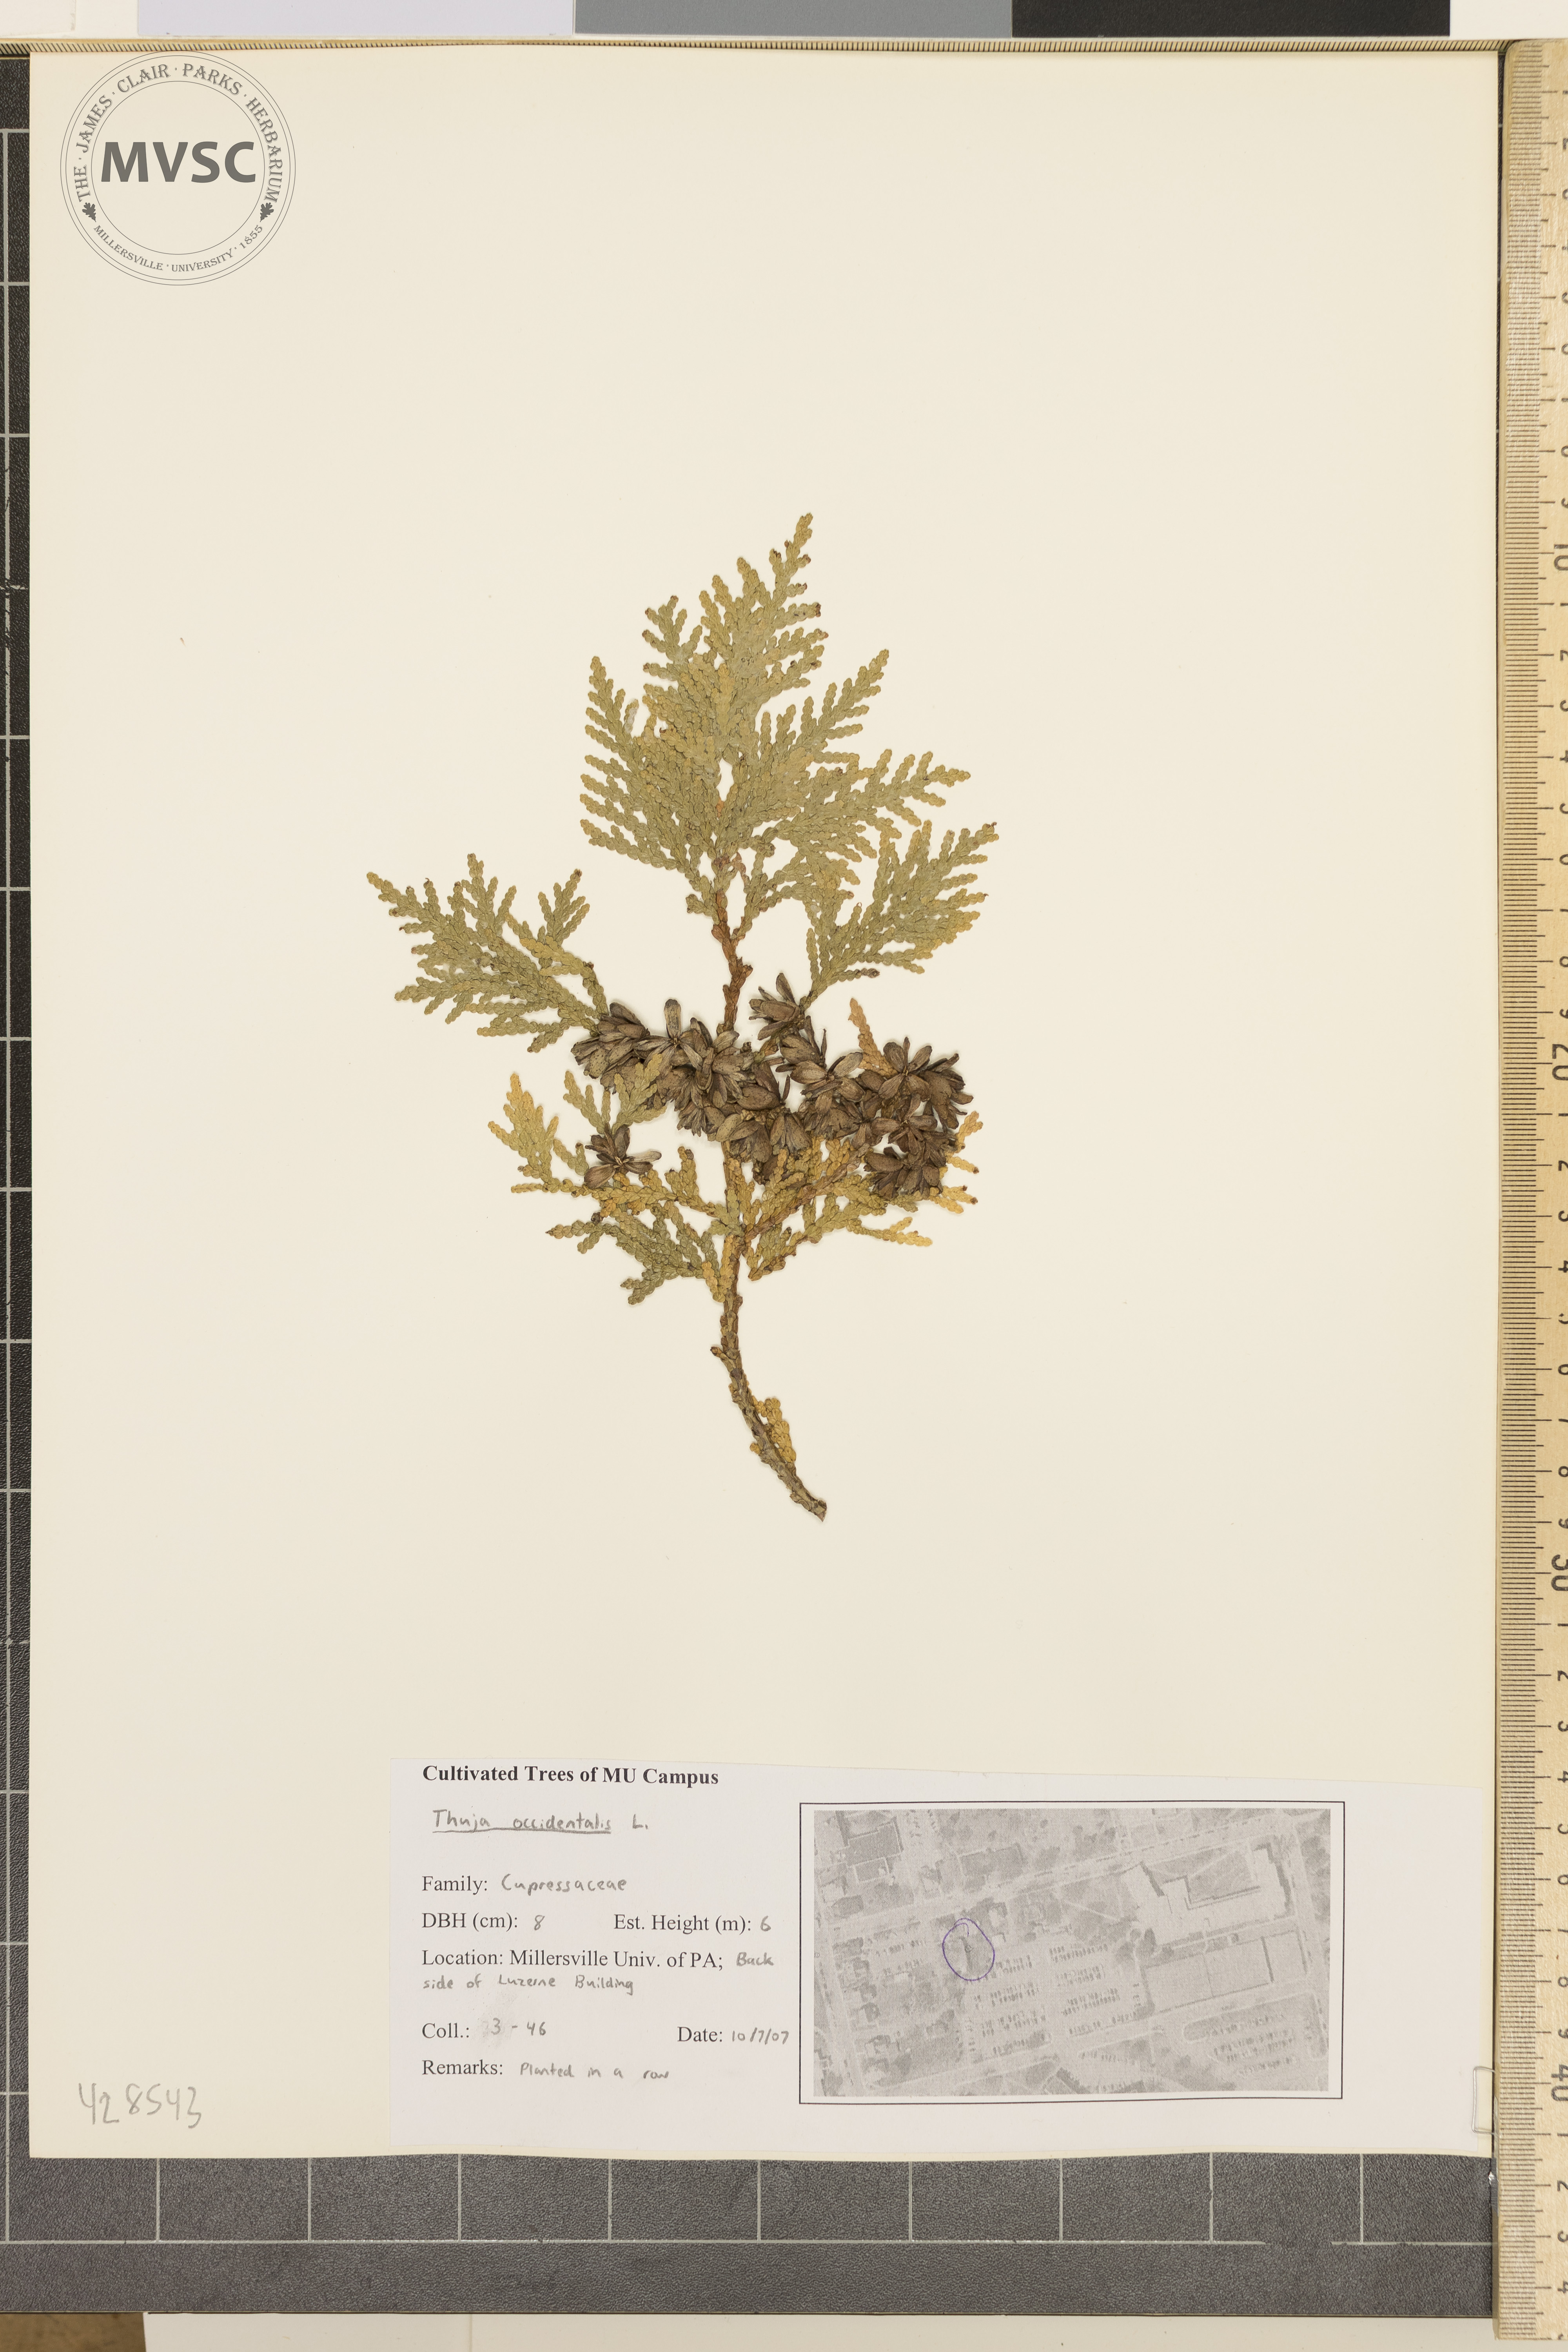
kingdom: Plantae
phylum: Tracheophyta
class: Pinopsida
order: Pinales
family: Cupressaceae
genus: Thuja
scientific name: Thuja occidentalis
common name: Arborvitae
